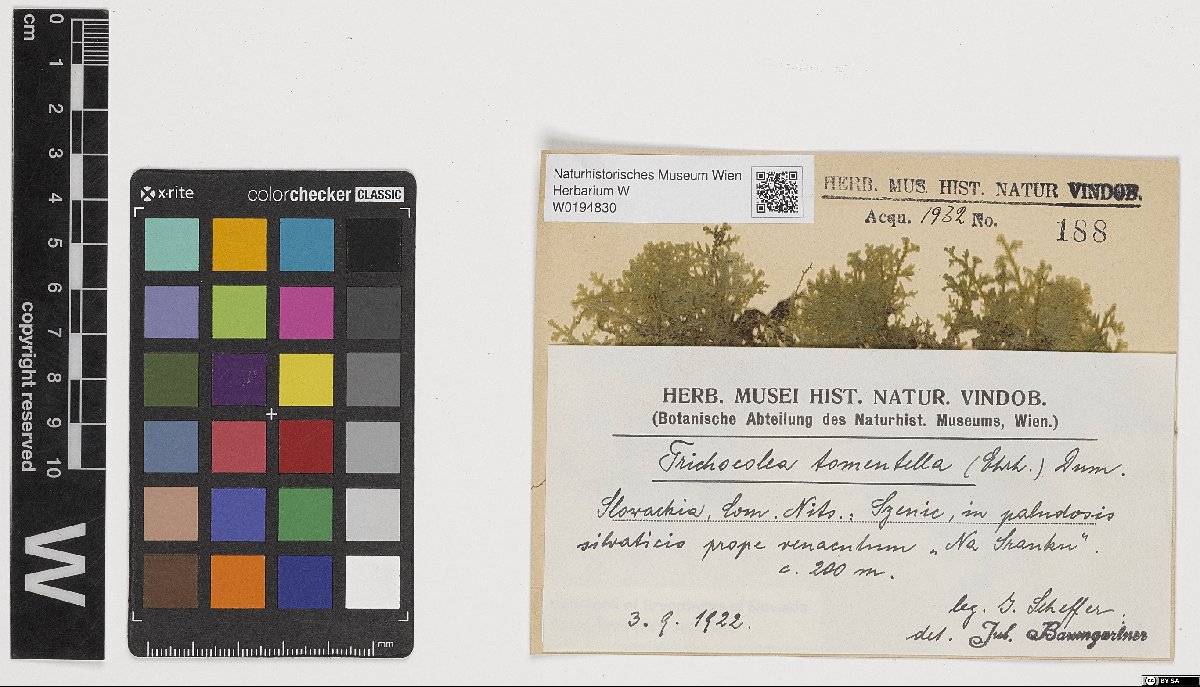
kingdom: Plantae
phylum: Marchantiophyta
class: Jungermanniopsida
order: Jungermanniales
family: Trichocoleaceae
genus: Trichocolea
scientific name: Trichocolea tomentella
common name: Woolly liverwort
